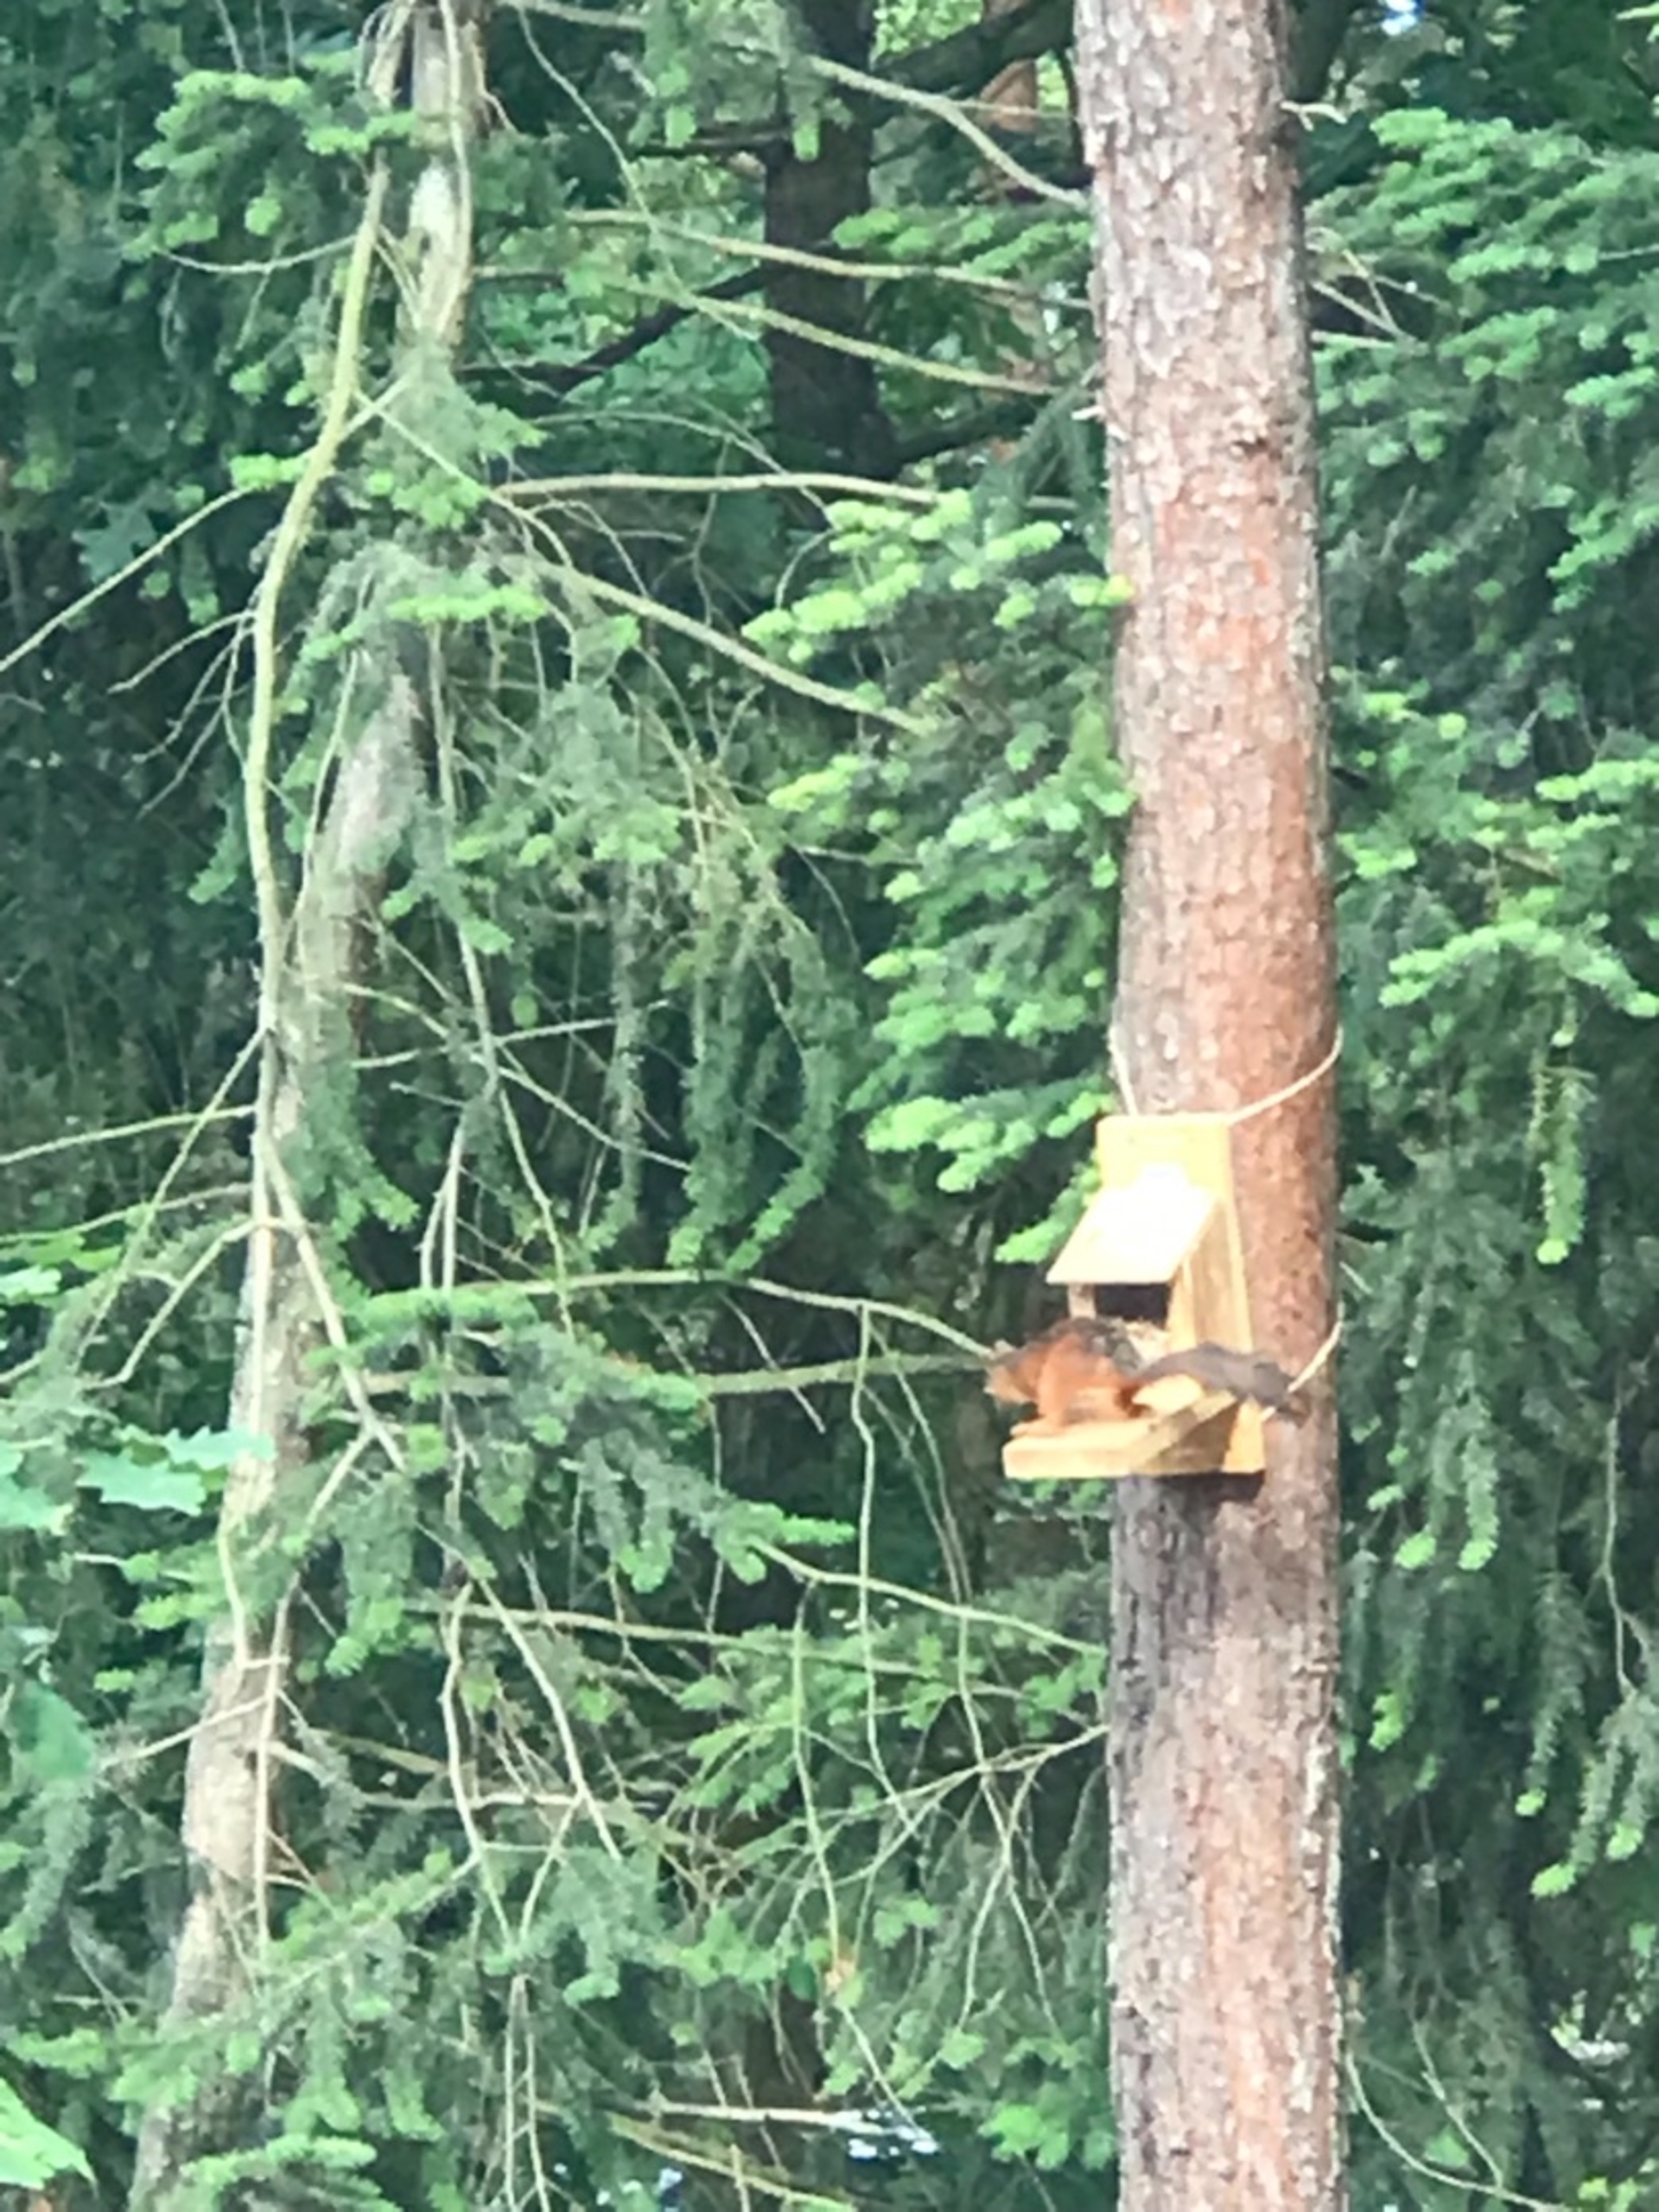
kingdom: Animalia
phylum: Chordata
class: Mammalia
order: Rodentia
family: Sciuridae
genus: Sciurus
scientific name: Sciurus vulgaris
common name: Egern
